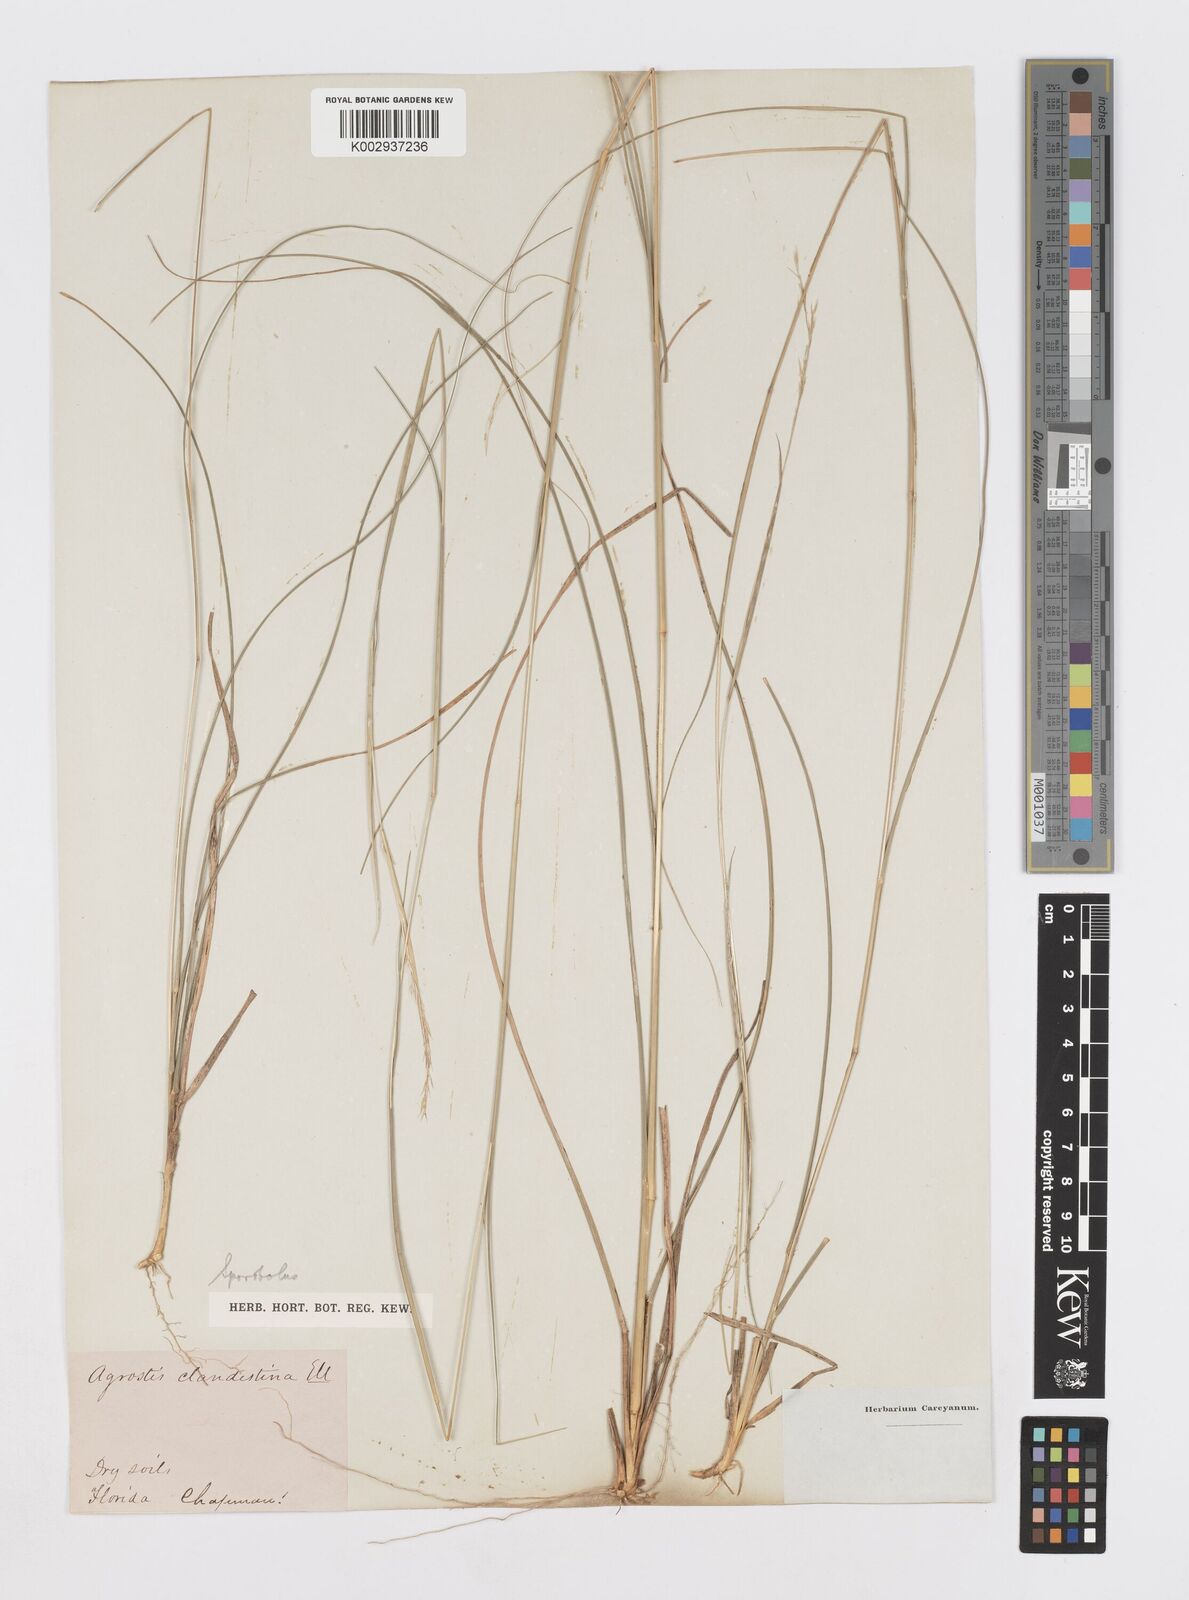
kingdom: Plantae
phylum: Tracheophyta
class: Liliopsida
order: Poales
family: Poaceae
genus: Sporobolus
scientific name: Sporobolus clandestinus
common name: Hidden dropseed
